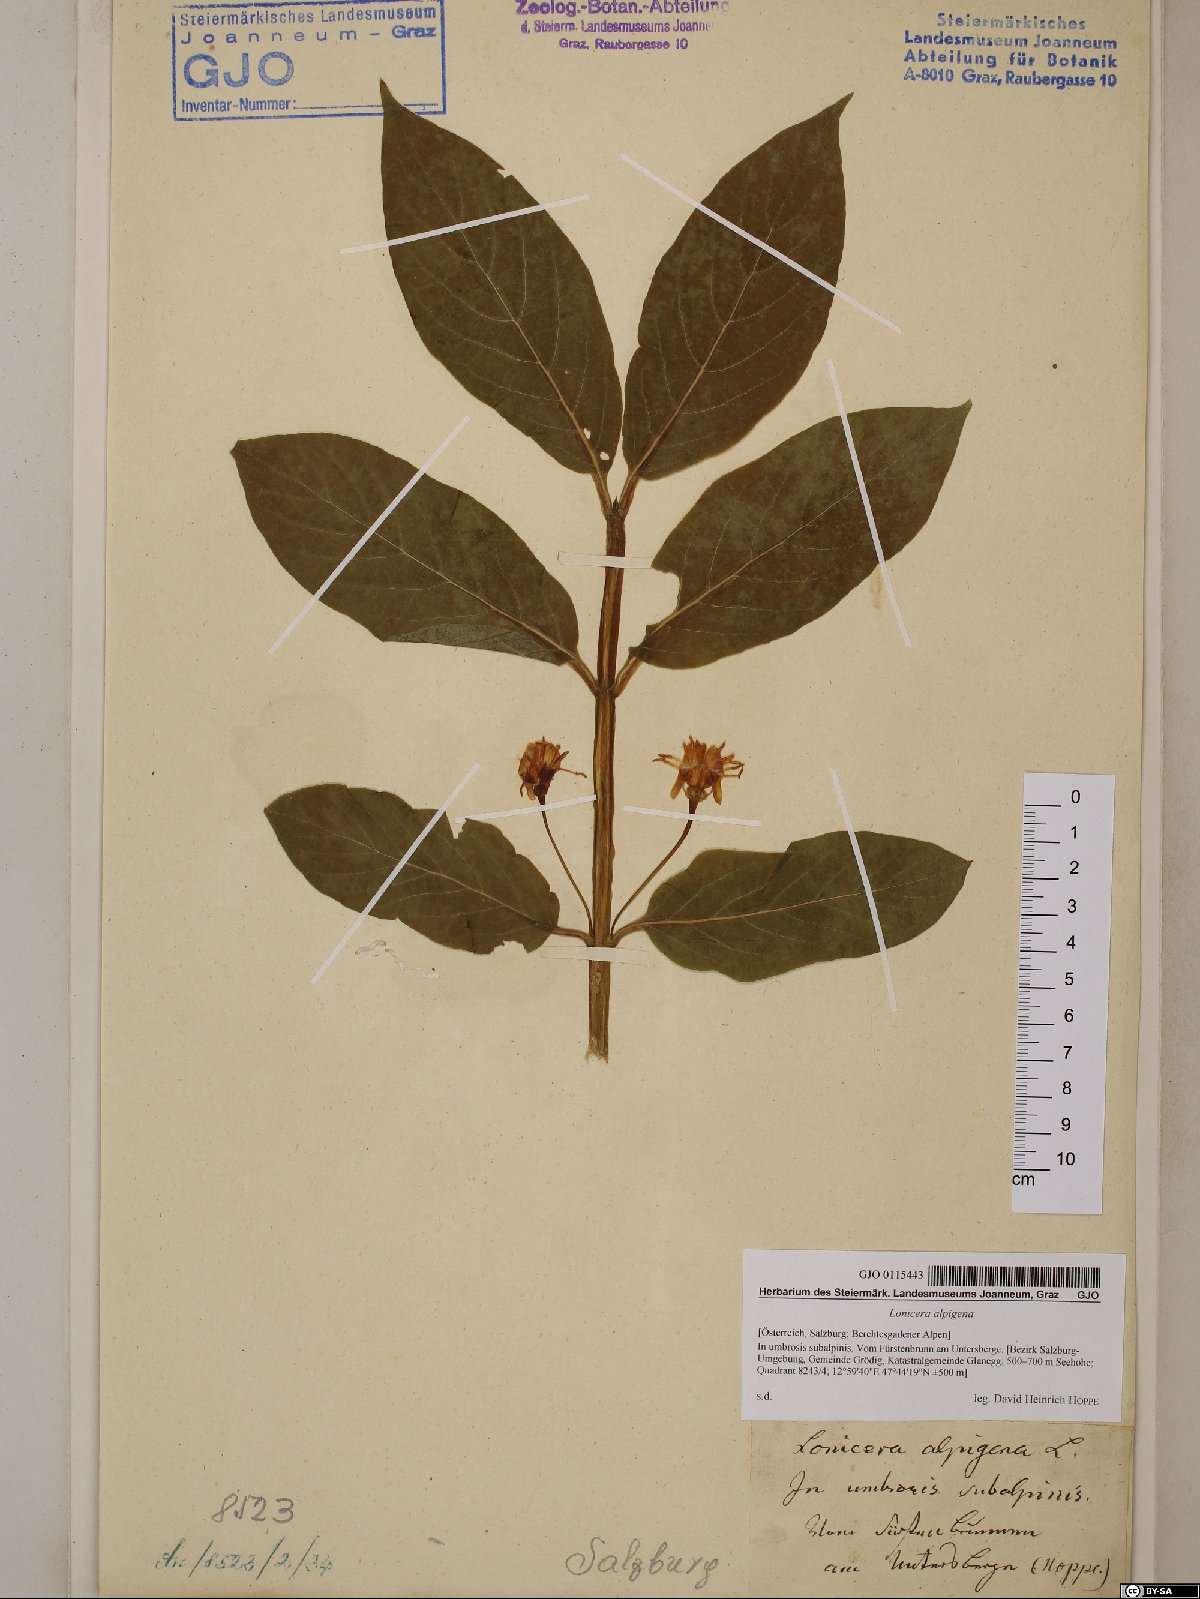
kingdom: Plantae
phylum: Tracheophyta
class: Magnoliopsida
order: Dipsacales
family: Caprifoliaceae
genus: Lonicera
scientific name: Lonicera alpigena
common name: Alpine honeysuckle
